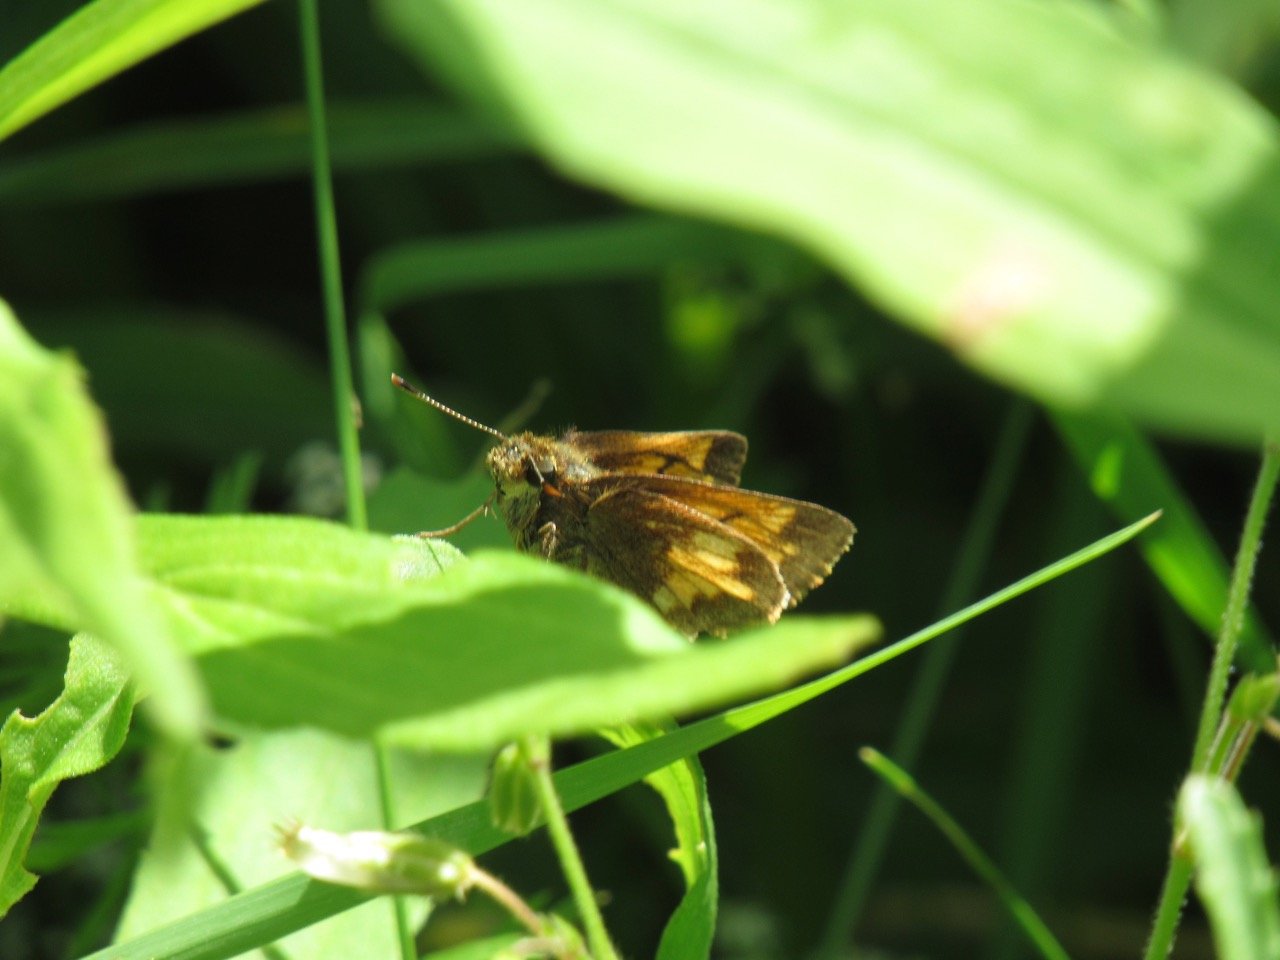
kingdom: Animalia
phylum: Arthropoda
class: Insecta
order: Lepidoptera
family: Hesperiidae
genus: Lon
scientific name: Lon hobomok
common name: Hobomok Skipper
